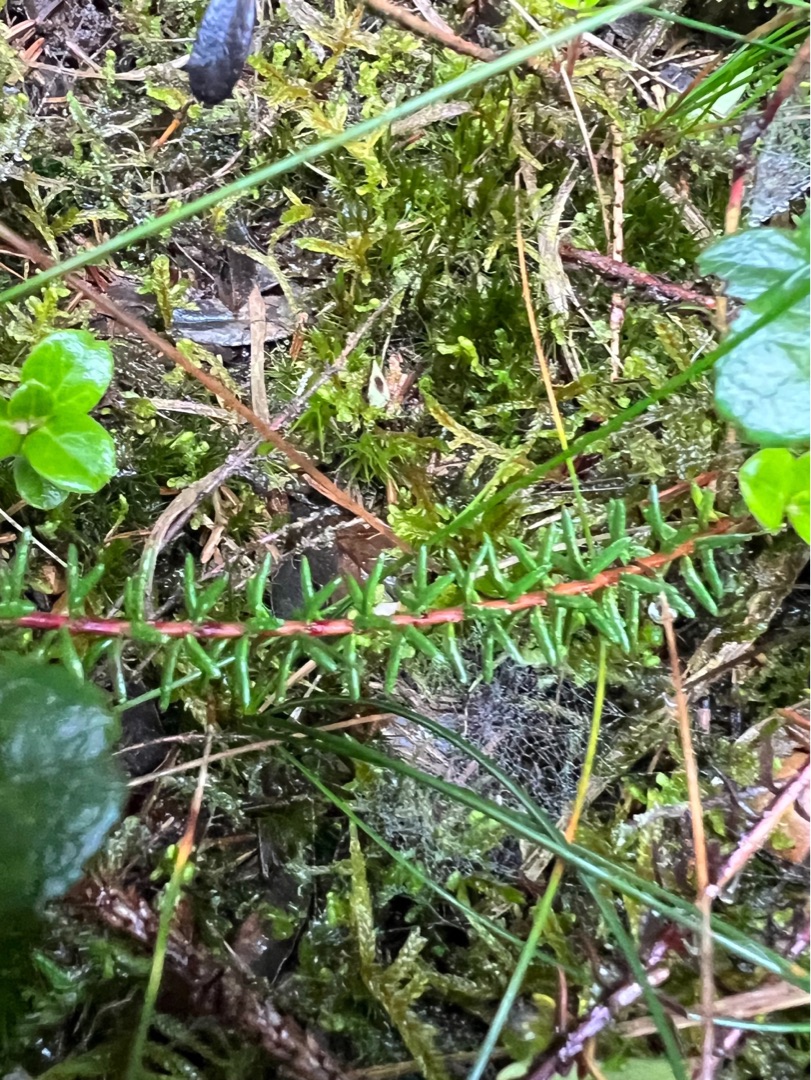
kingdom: Plantae
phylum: Tracheophyta
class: Magnoliopsida
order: Ericales
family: Ericaceae
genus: Empetrum
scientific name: Empetrum nigrum
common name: Revling
